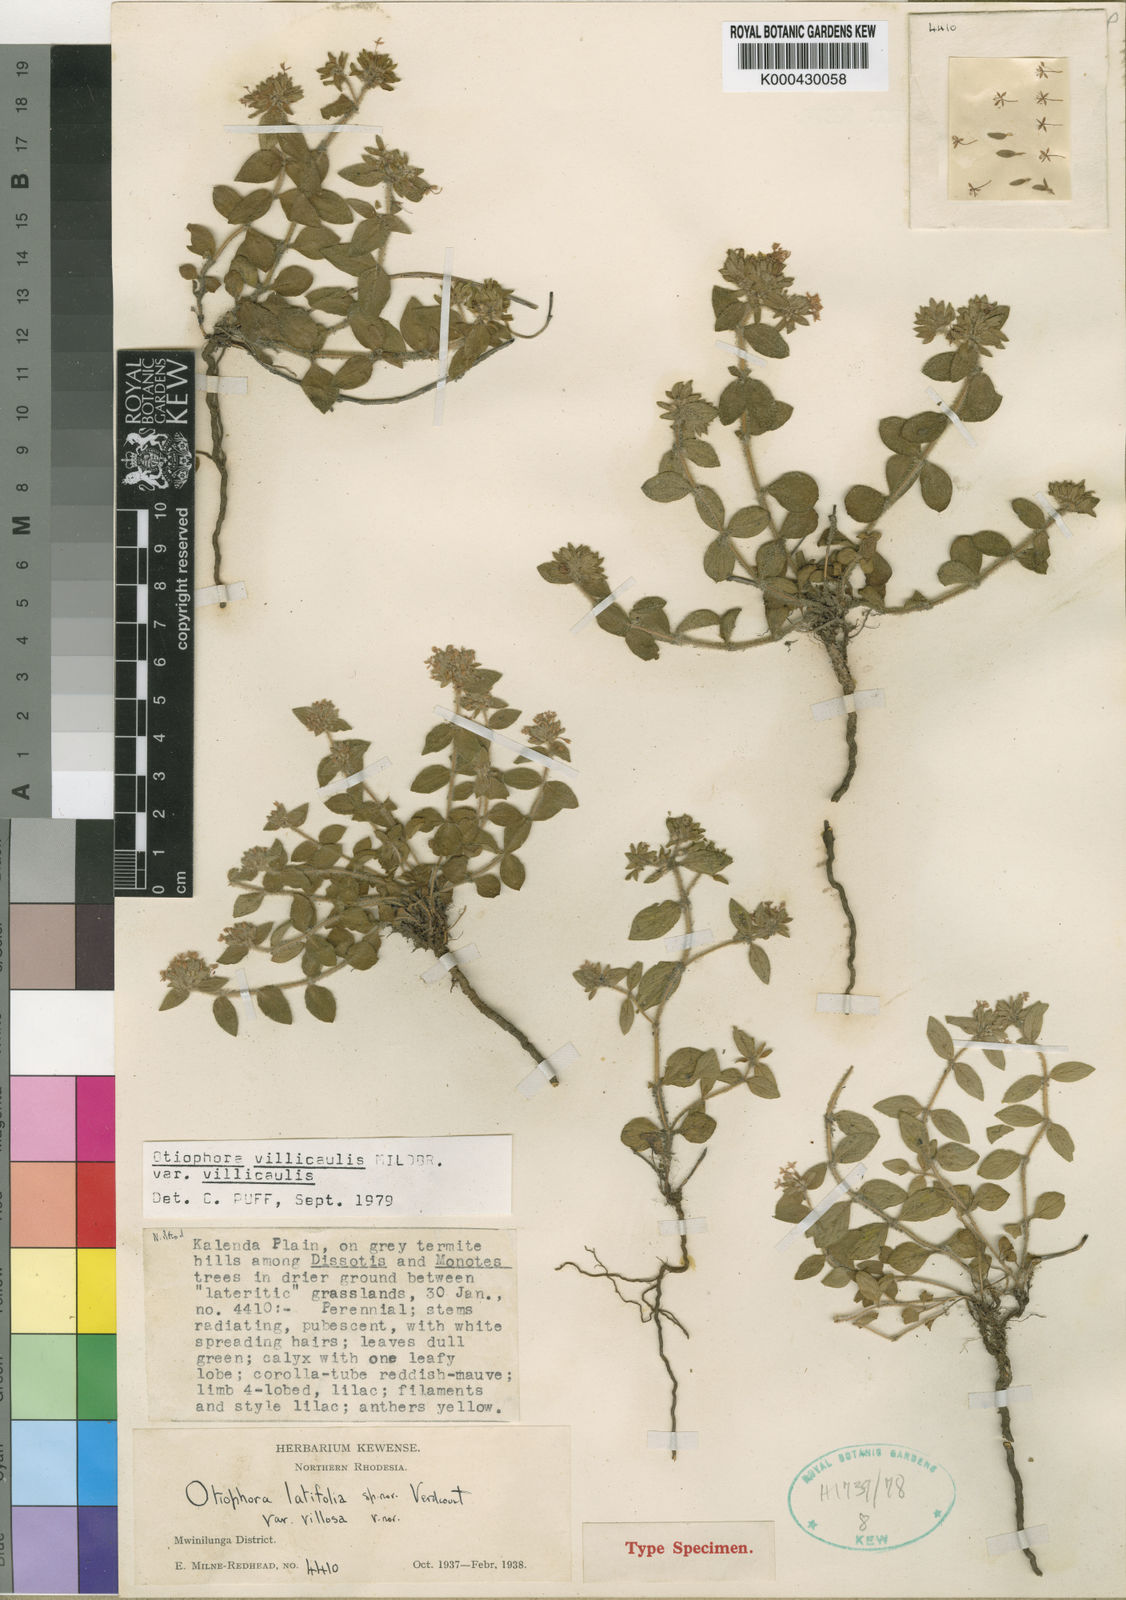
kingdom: Plantae
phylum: Tracheophyta
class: Magnoliopsida
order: Gentianales
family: Rubiaceae
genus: Otiophora
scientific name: Otiophora villicaulis
